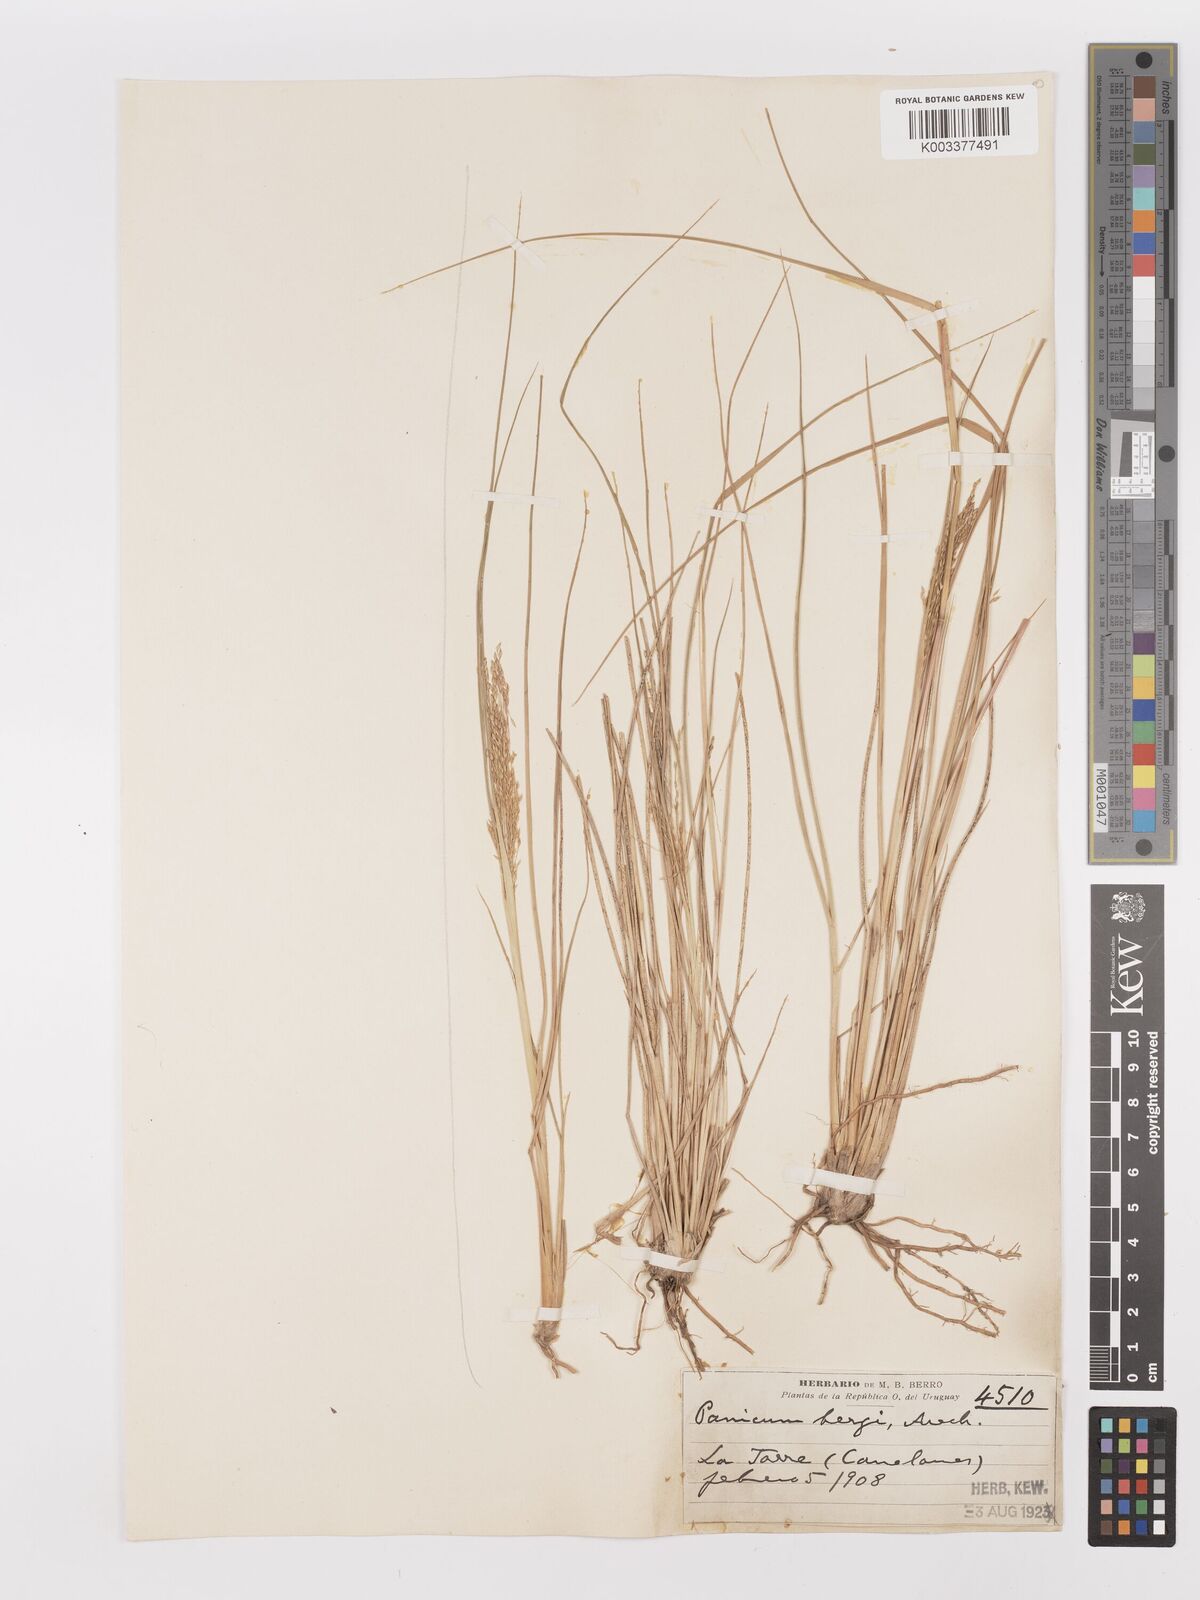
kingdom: Plantae
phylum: Tracheophyta
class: Liliopsida
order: Poales
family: Poaceae
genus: Panicum
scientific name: Panicum bergii
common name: Berg's panicgrass
